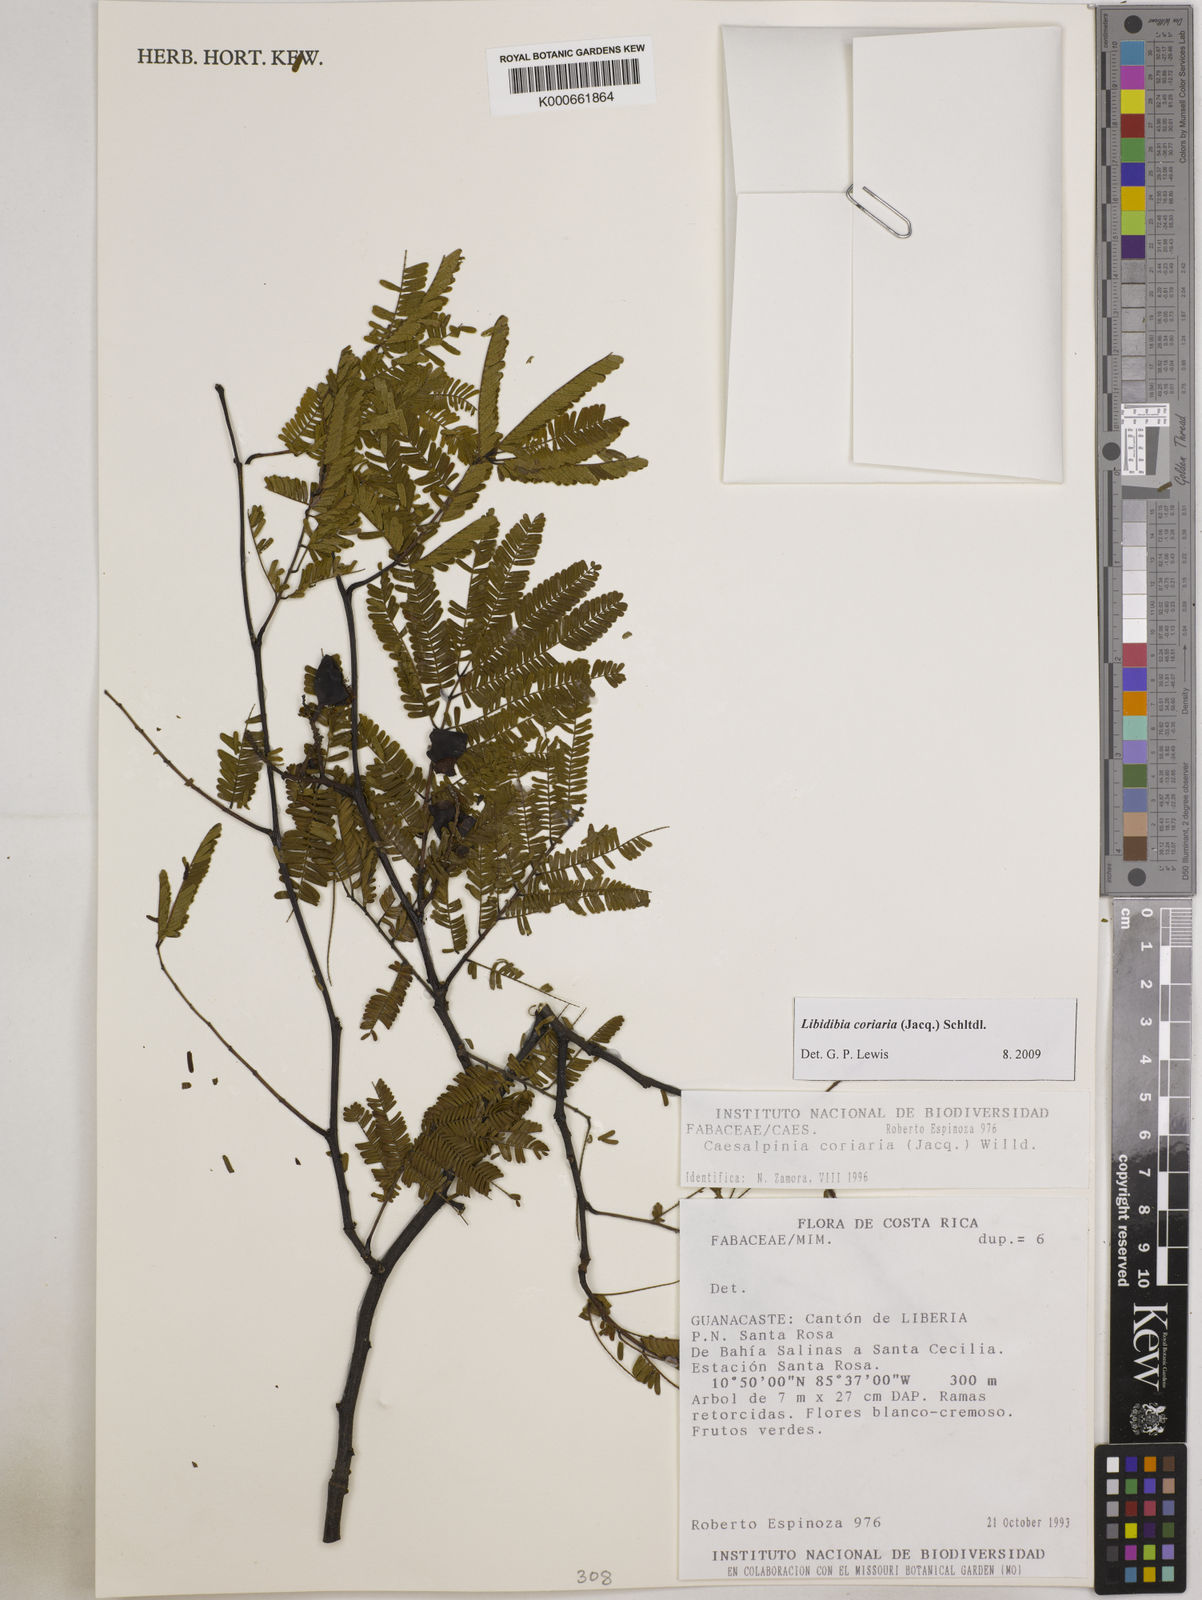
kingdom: Plantae
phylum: Tracheophyta
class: Magnoliopsida
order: Fabales
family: Fabaceae
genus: Libidibia
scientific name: Libidibia coriaria
